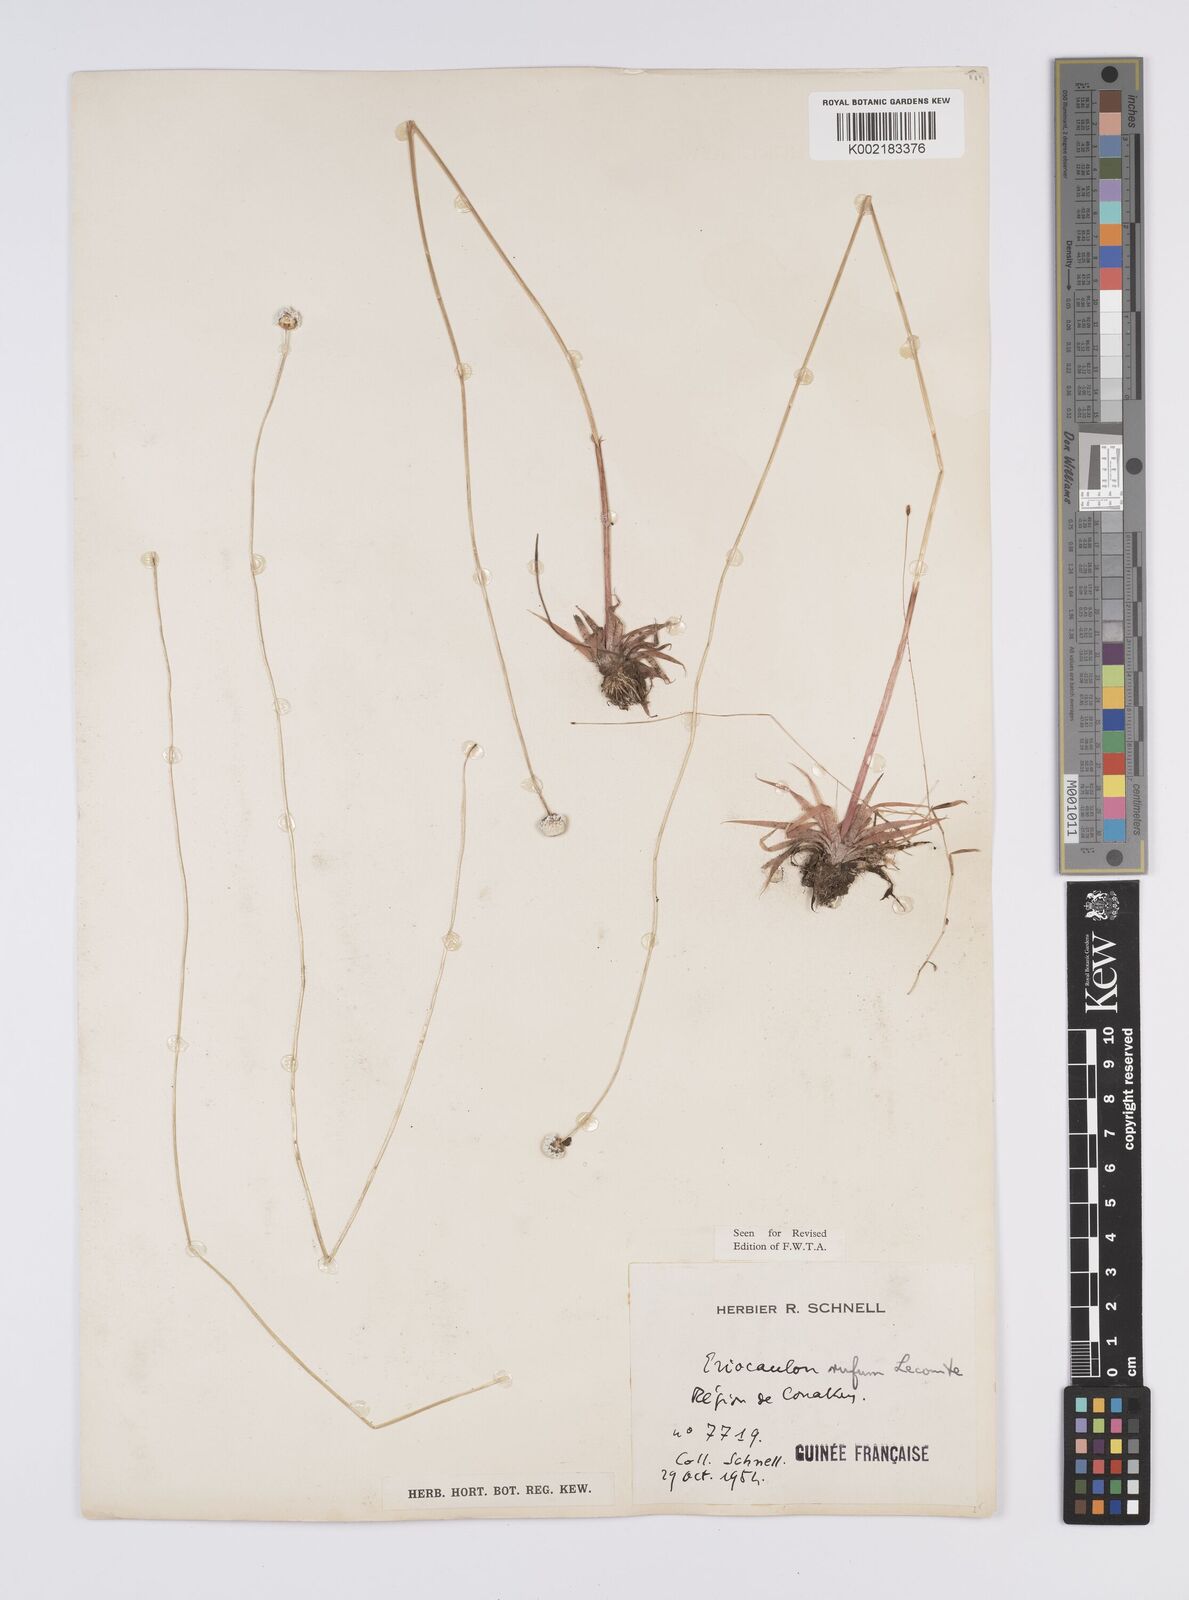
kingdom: Plantae
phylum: Tracheophyta
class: Liliopsida
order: Poales
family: Eriocaulaceae
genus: Eriocaulon
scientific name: Eriocaulon rufum
